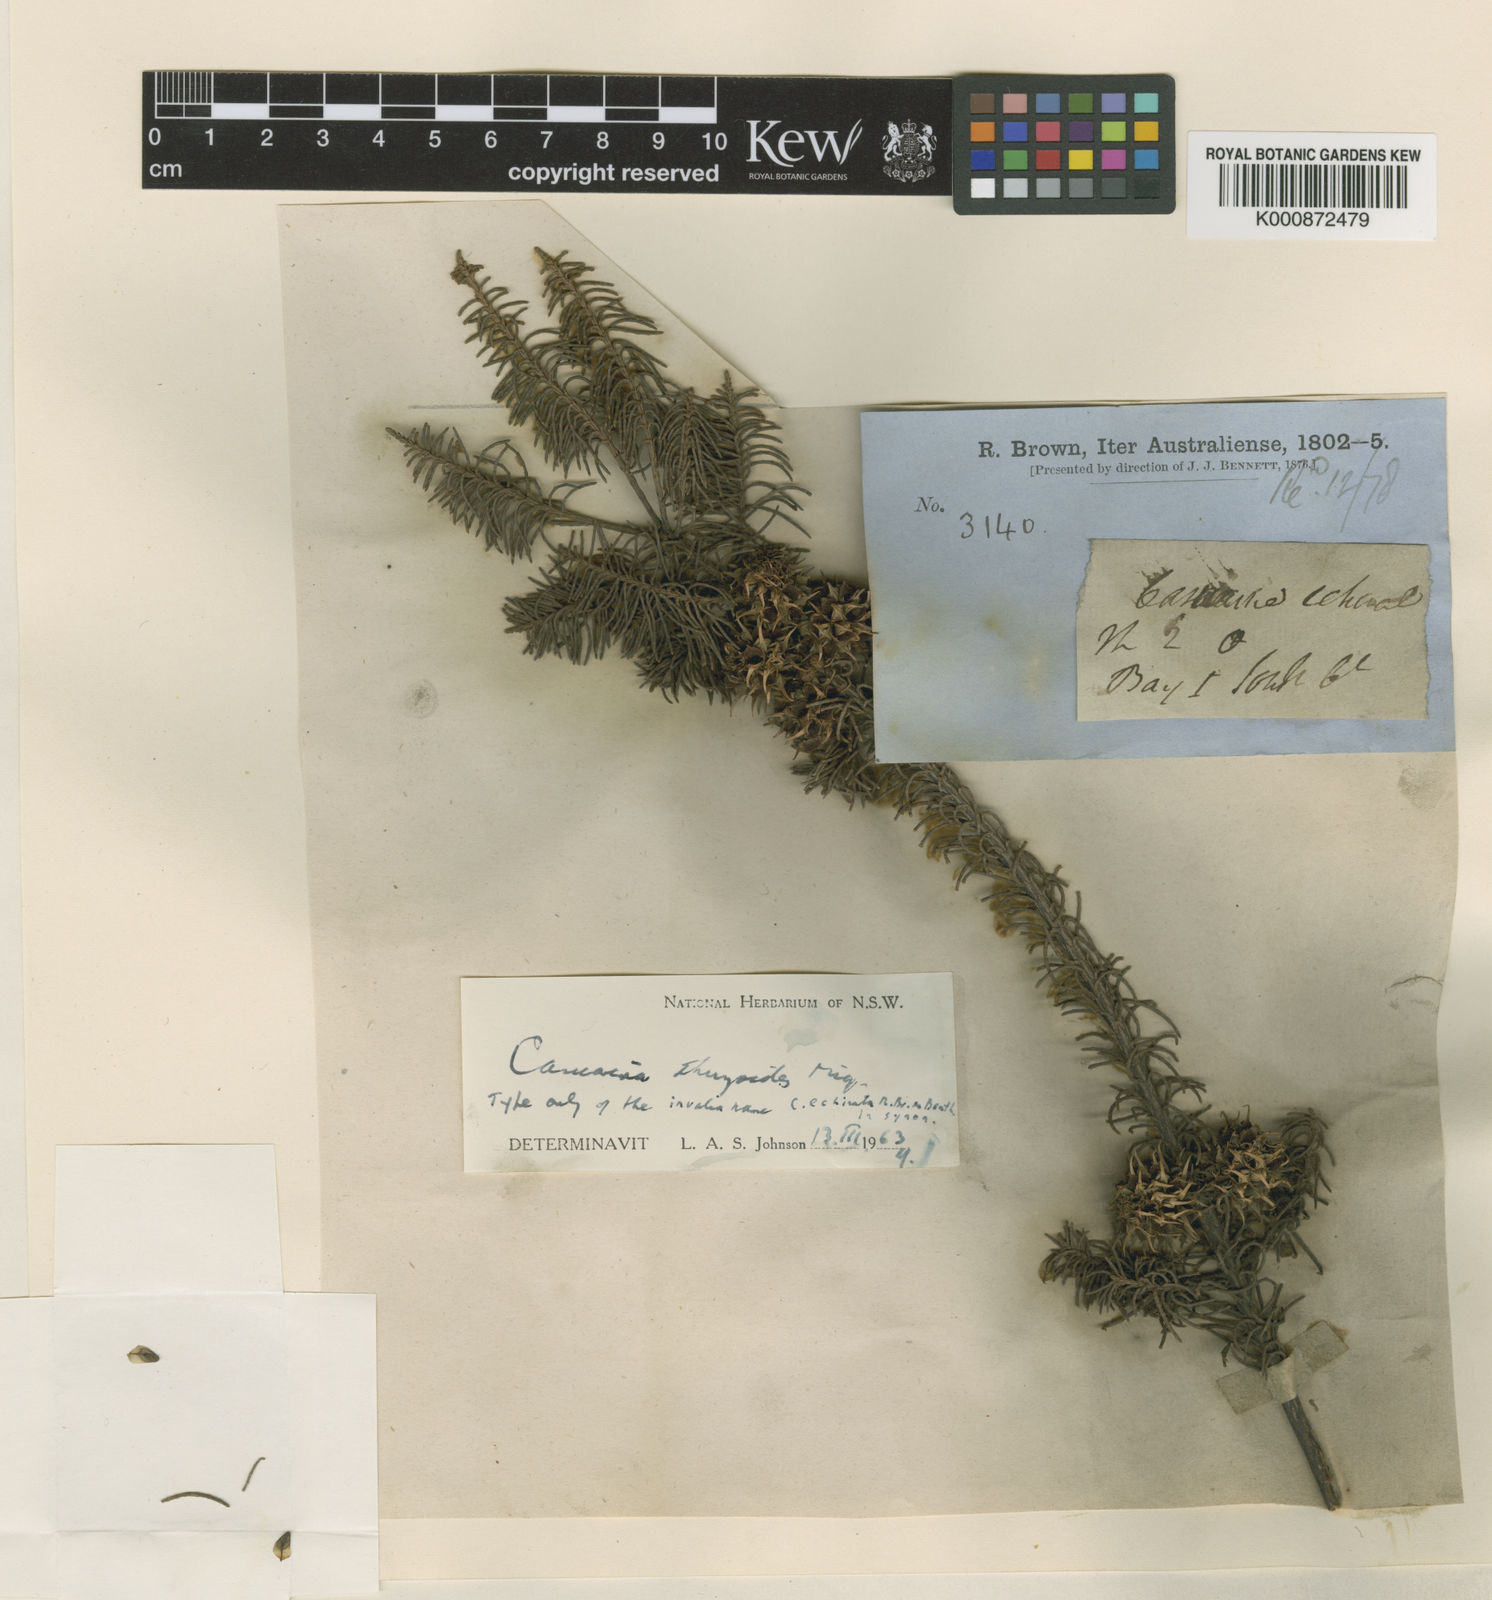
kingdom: Plantae
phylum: Tracheophyta
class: Magnoliopsida
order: Fagales
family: Casuarinaceae
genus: Allocasuarina
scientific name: Allocasuarina thuyoides
